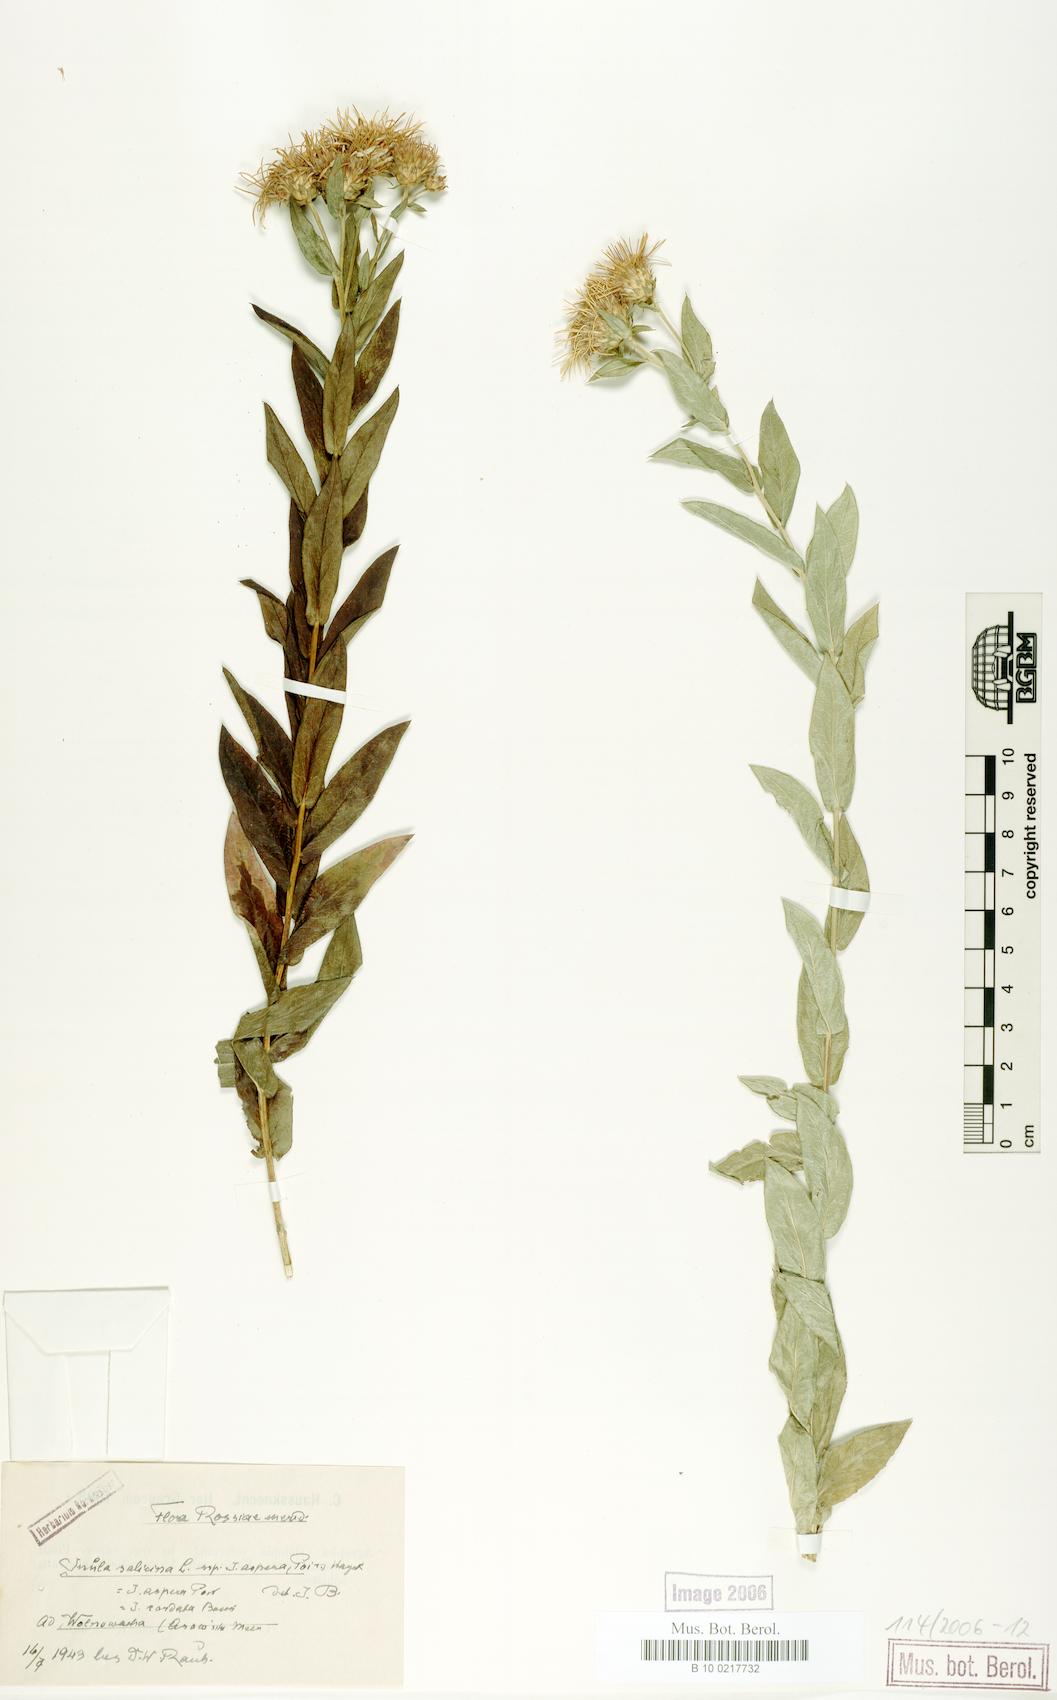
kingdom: Plantae
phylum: Tracheophyta
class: Magnoliopsida
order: Asterales
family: Asteraceae
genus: Pentanema
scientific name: Pentanema salicinum
